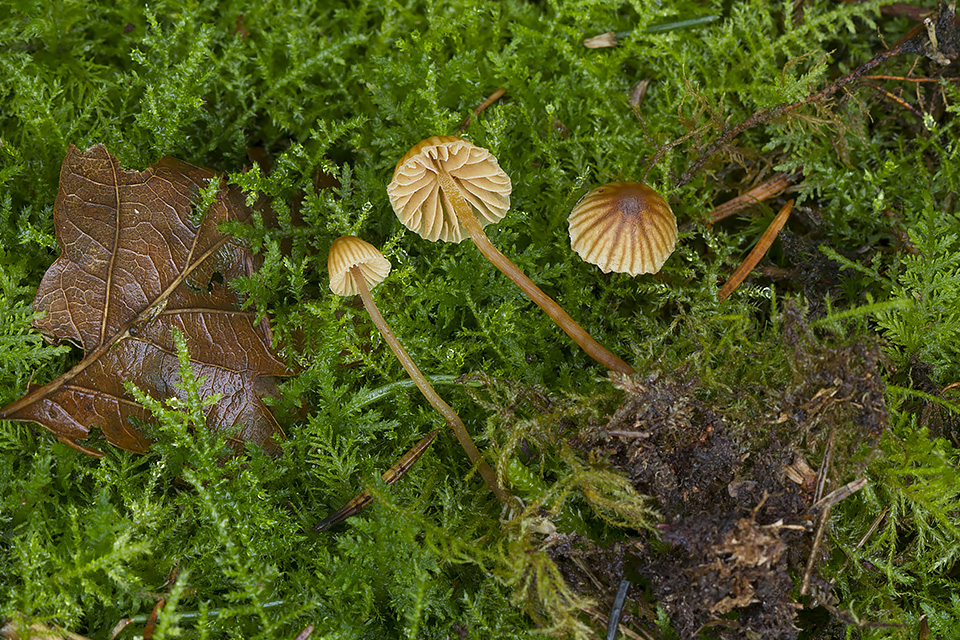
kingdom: Fungi
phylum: Basidiomycota
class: Agaricomycetes
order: Agaricales
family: Hymenogastraceae
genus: Galerina
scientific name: Galerina hypnorum
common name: mos-hjelmhat
